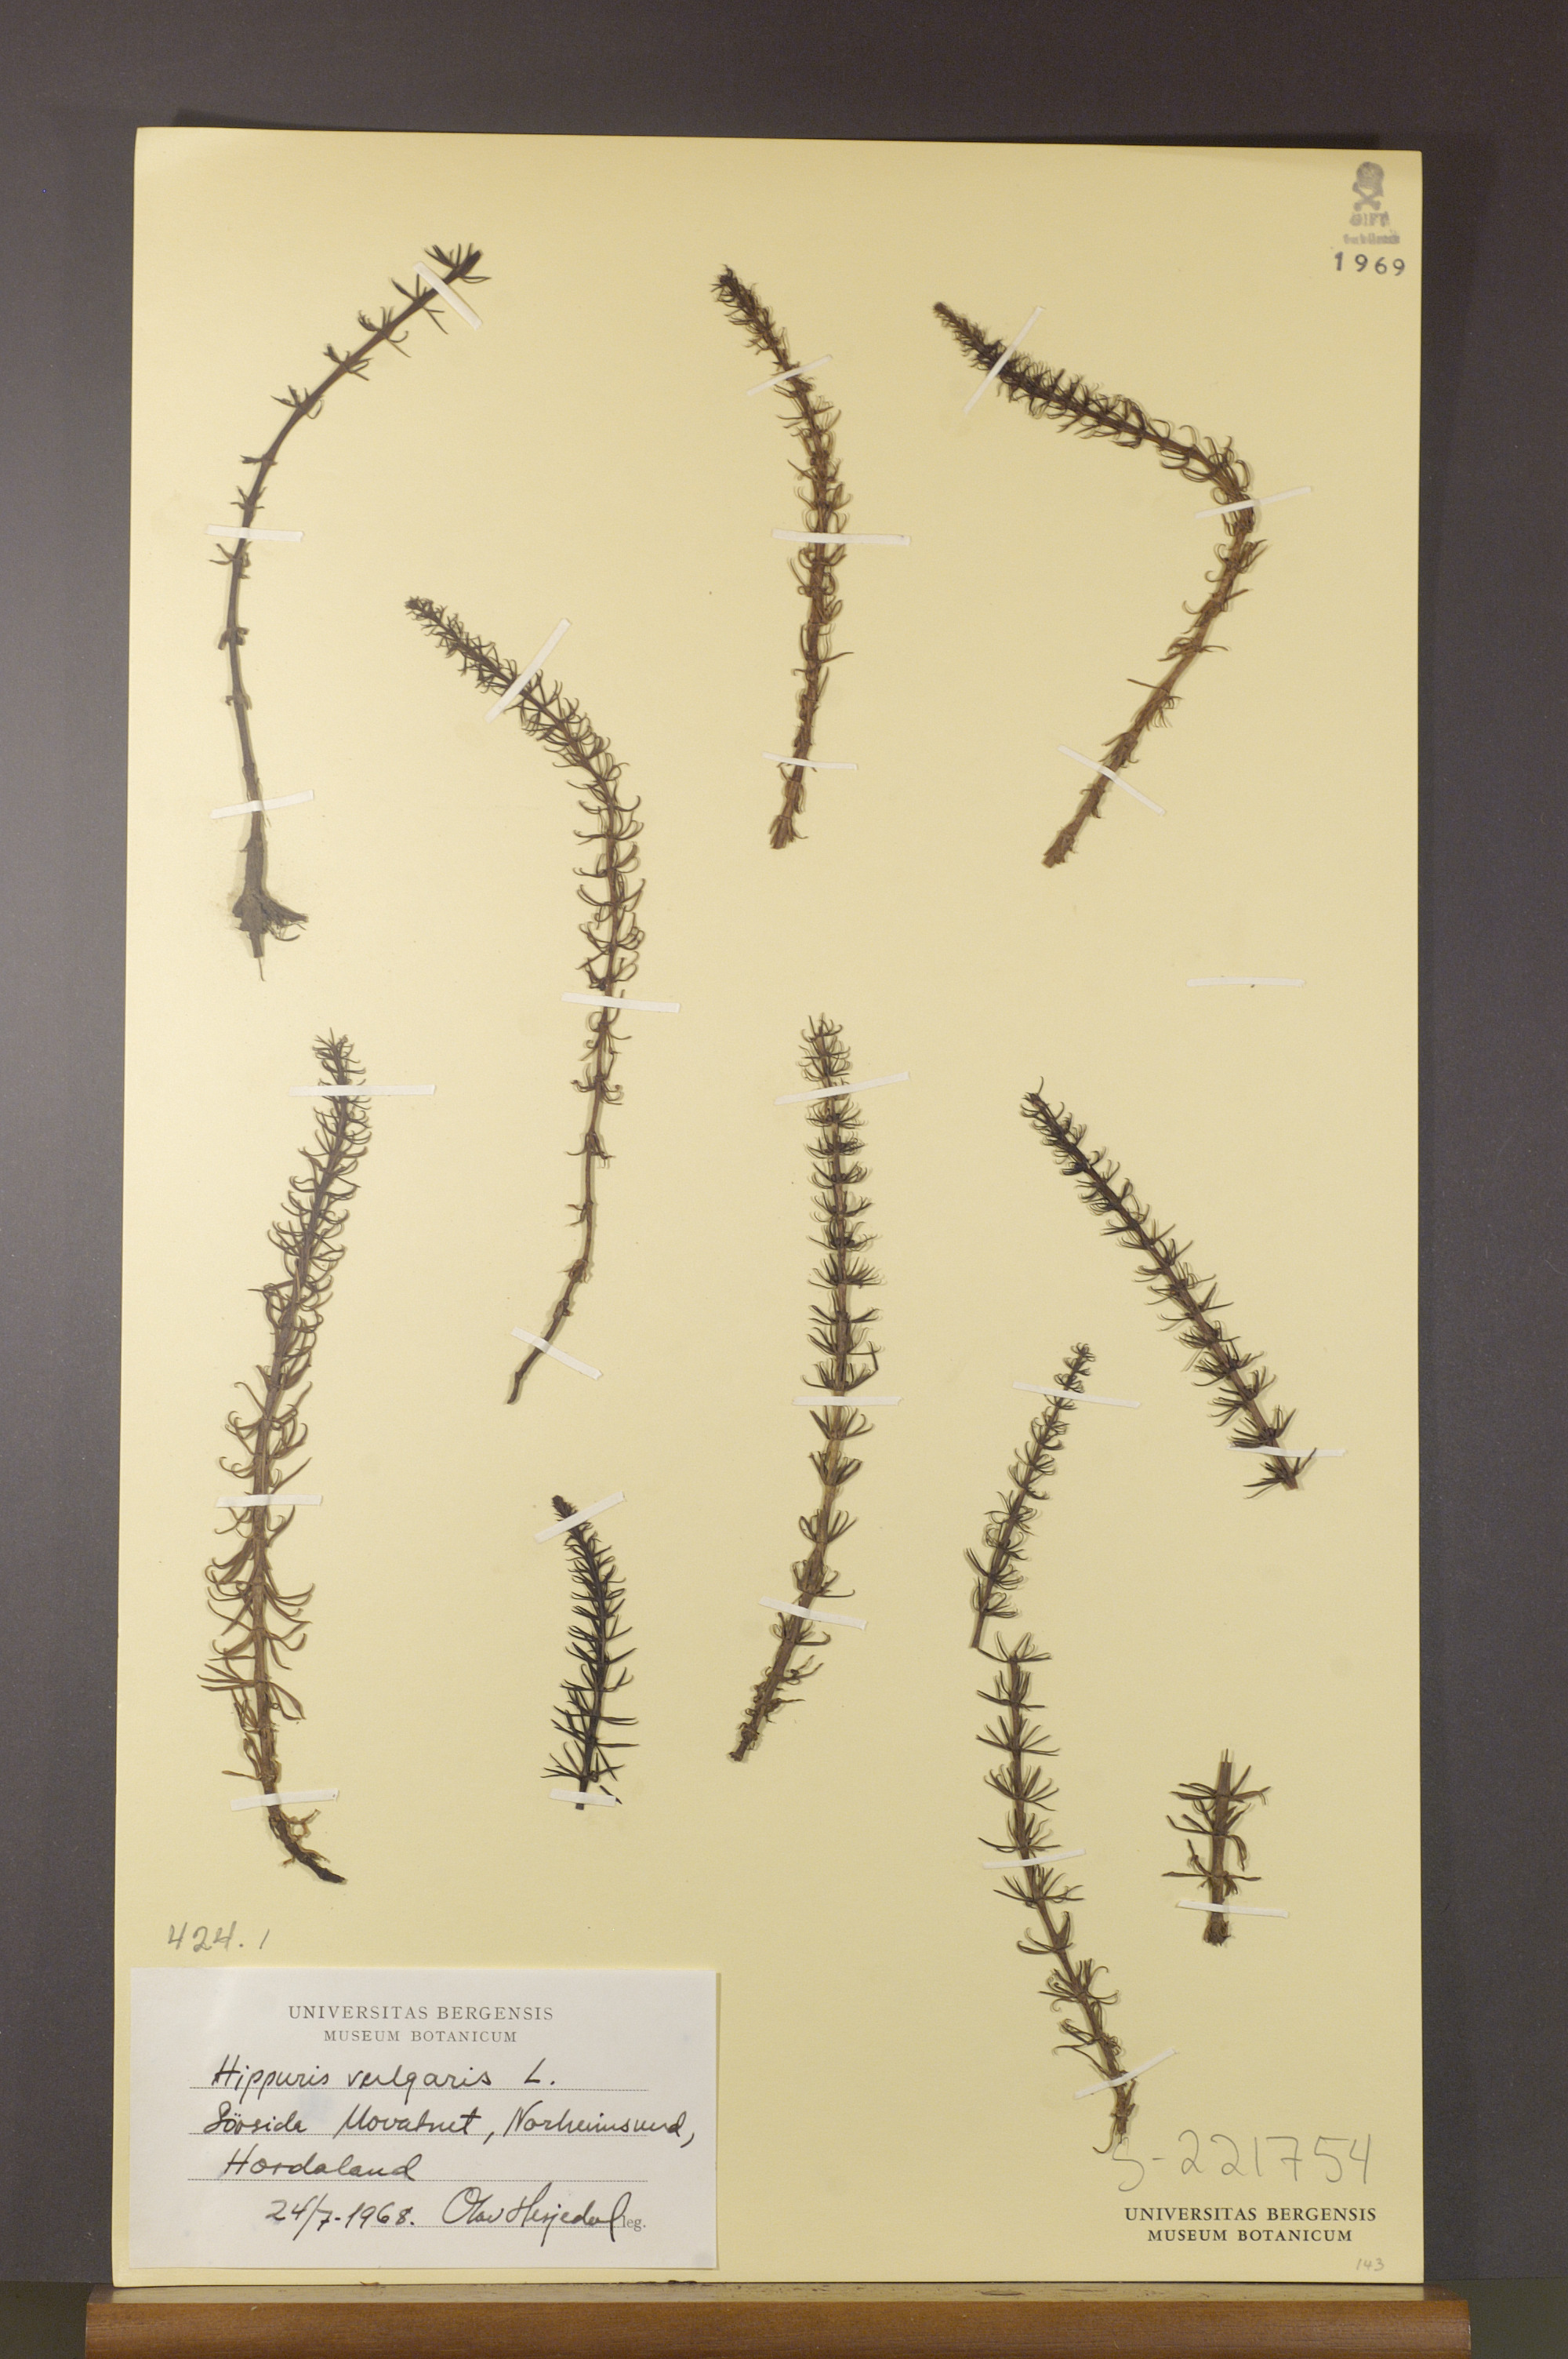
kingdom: Plantae
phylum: Tracheophyta
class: Magnoliopsida
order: Lamiales
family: Plantaginaceae
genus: Hippuris
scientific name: Hippuris vulgaris
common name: Mare's-tail
